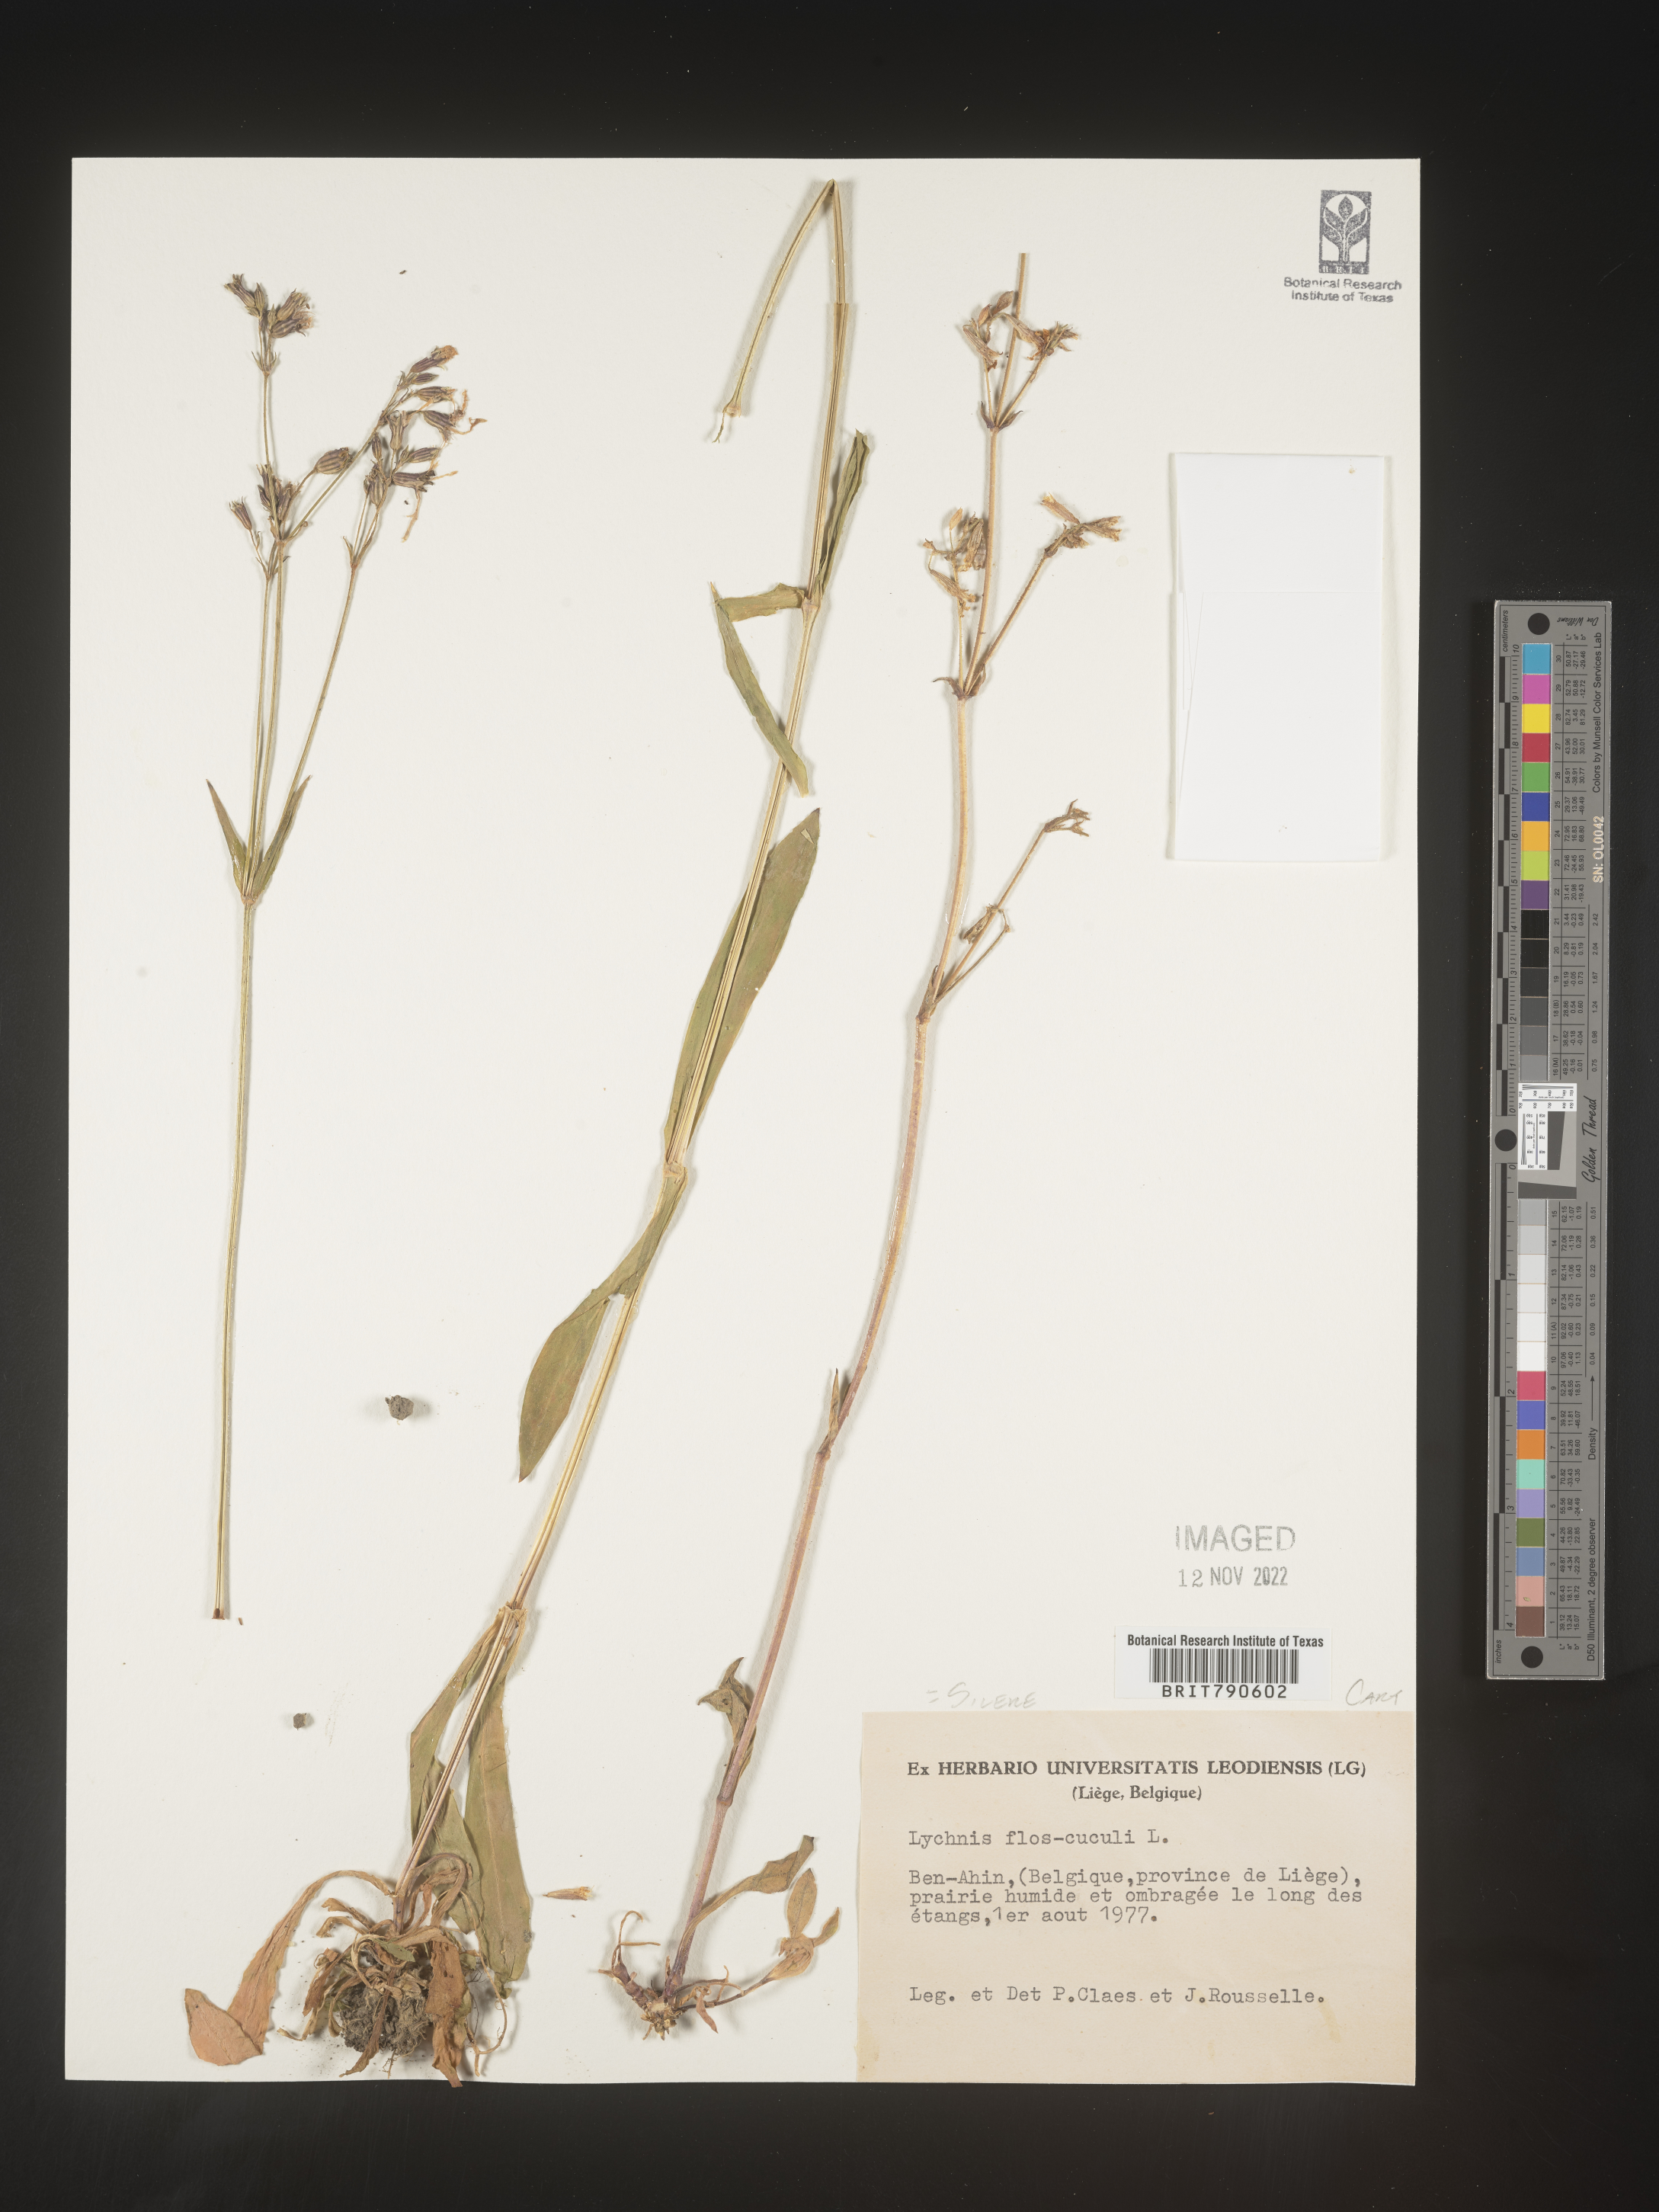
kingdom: Plantae
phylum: Tracheophyta
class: Magnoliopsida
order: Caryophyllales
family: Caryophyllaceae
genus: Silene
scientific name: Silene
